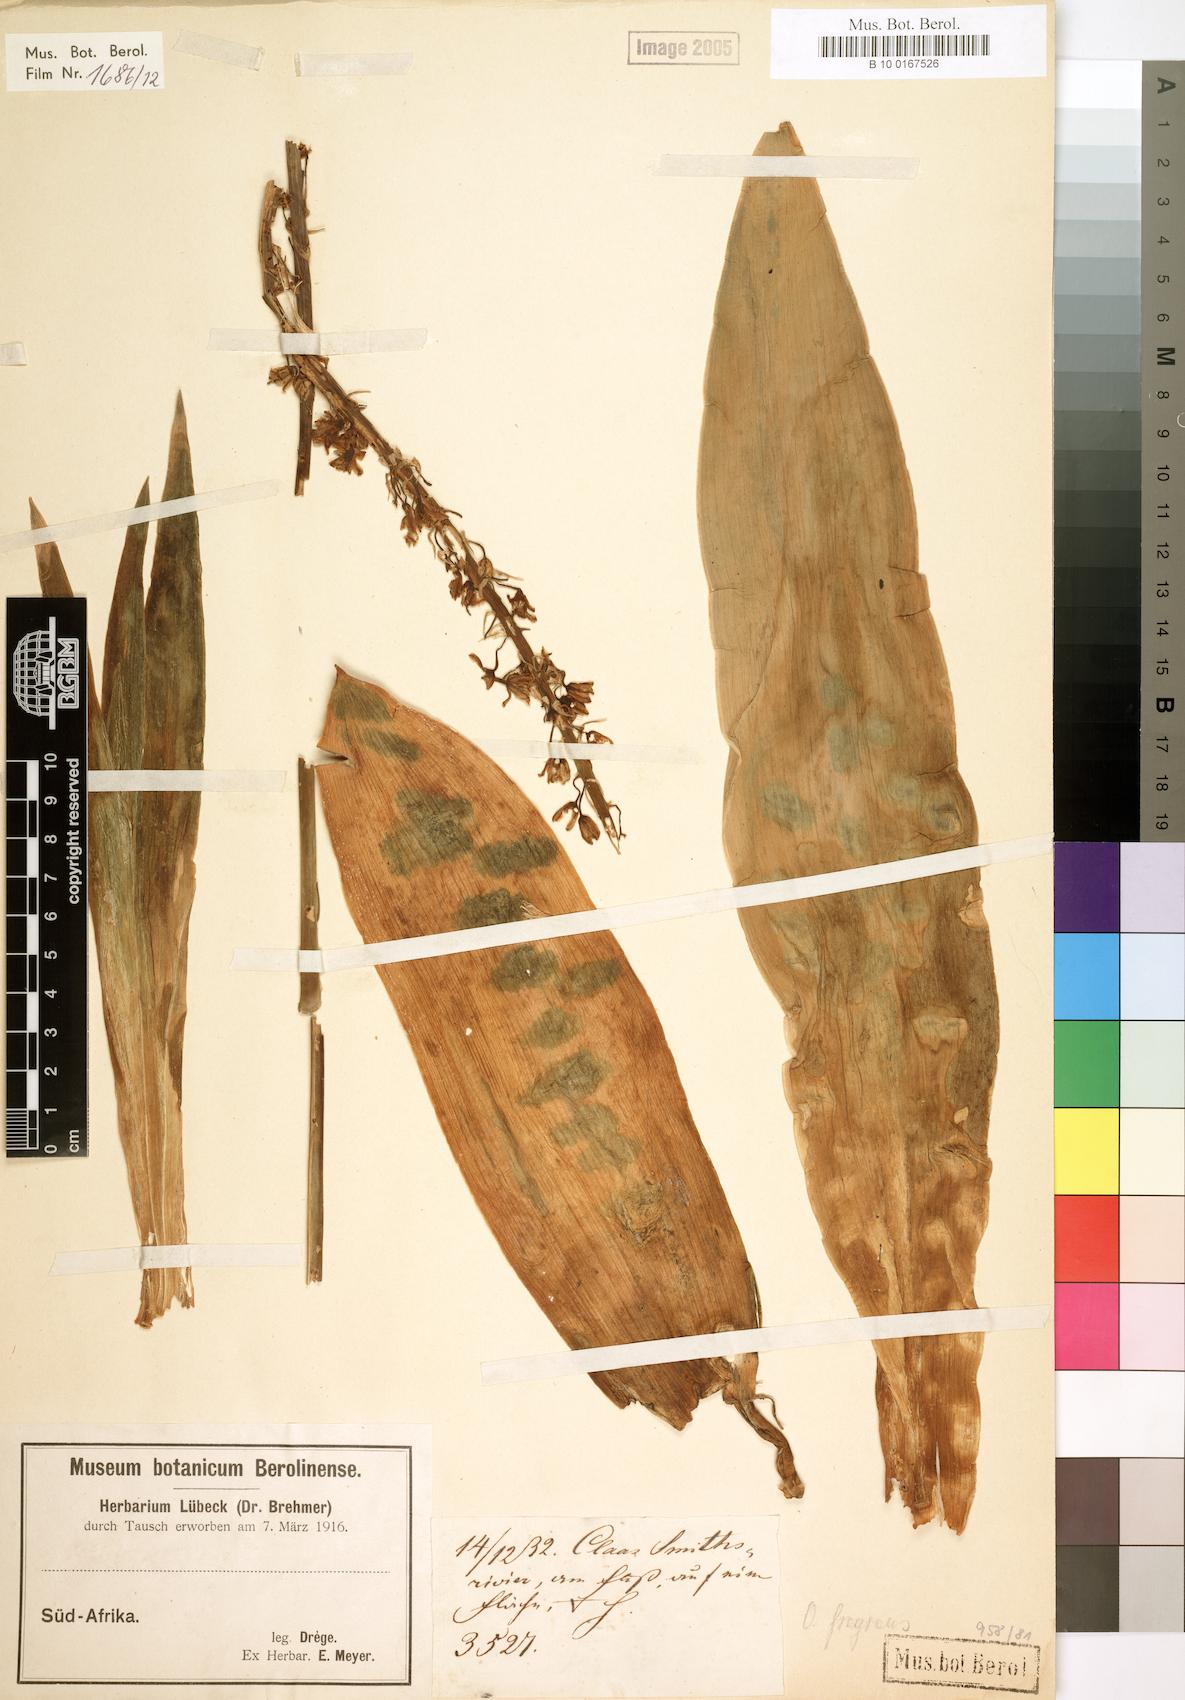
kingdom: Plantae
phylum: Tracheophyta
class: Liliopsida
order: Asparagales
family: Asparagaceae
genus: Drimia
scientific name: Drimia fragrans
